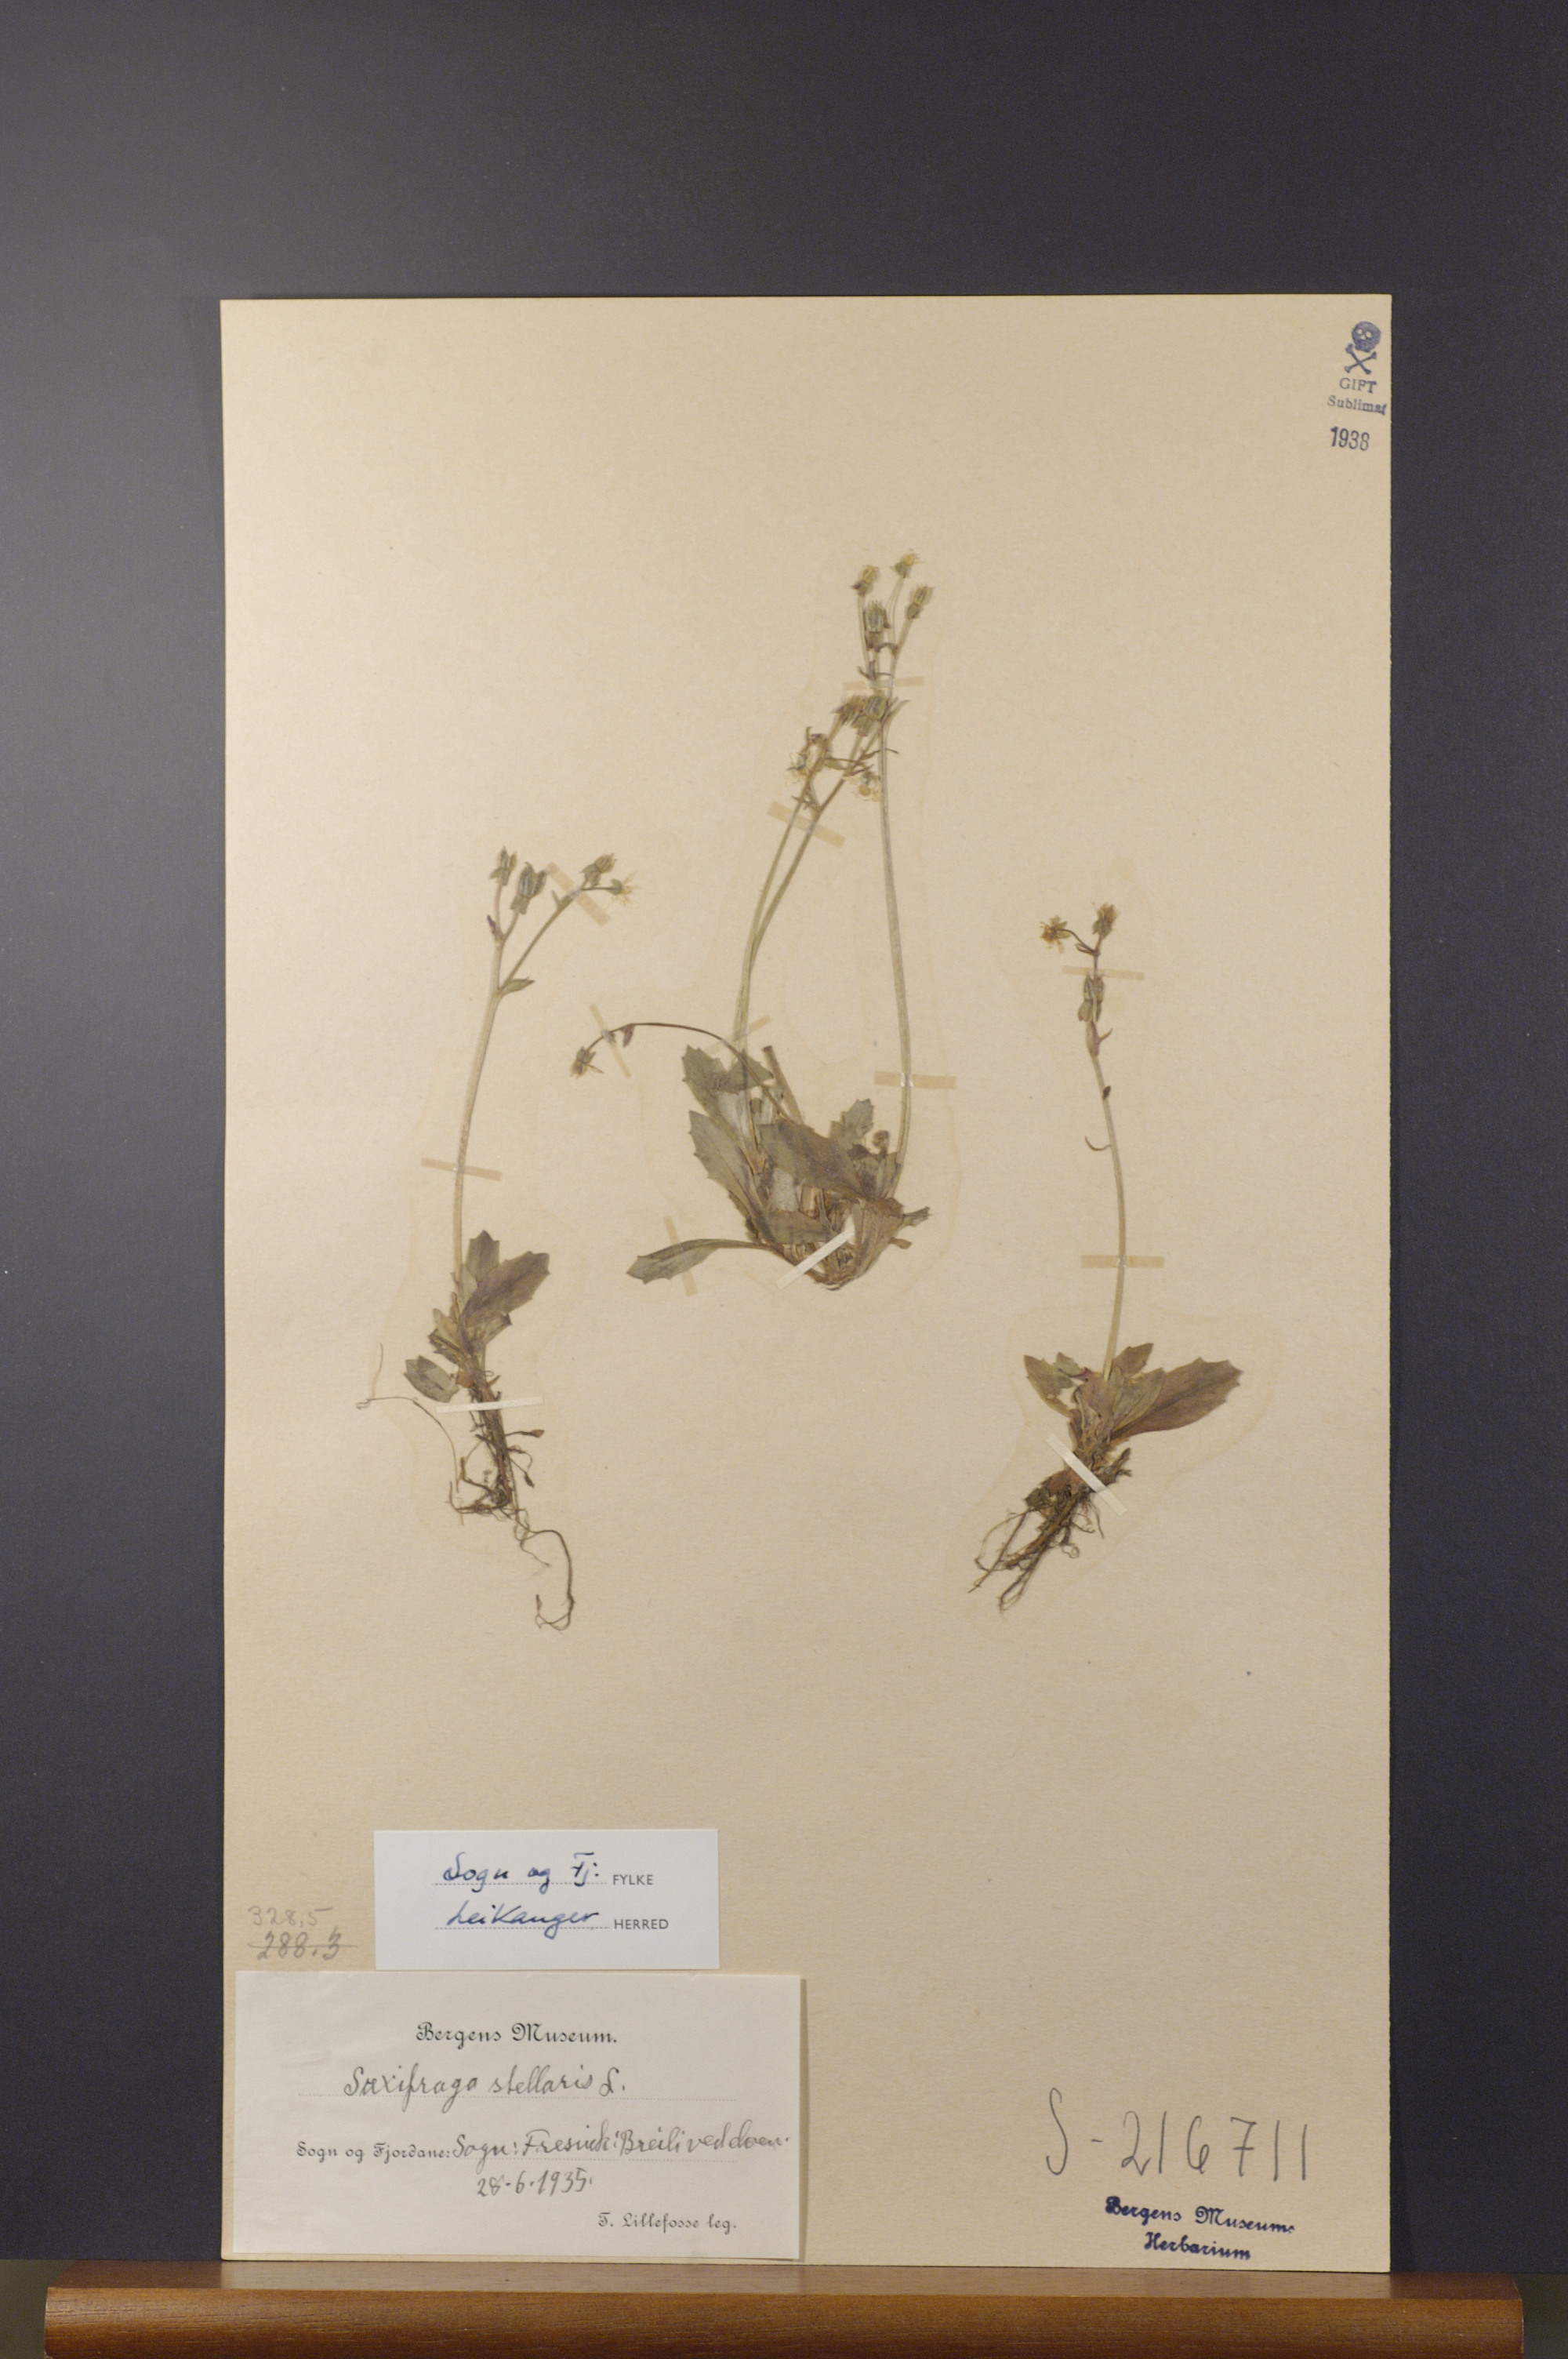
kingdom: Plantae
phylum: Tracheophyta
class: Magnoliopsida
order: Saxifragales
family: Saxifragaceae
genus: Micranthes
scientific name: Micranthes stellaris
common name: Starry saxifrage
